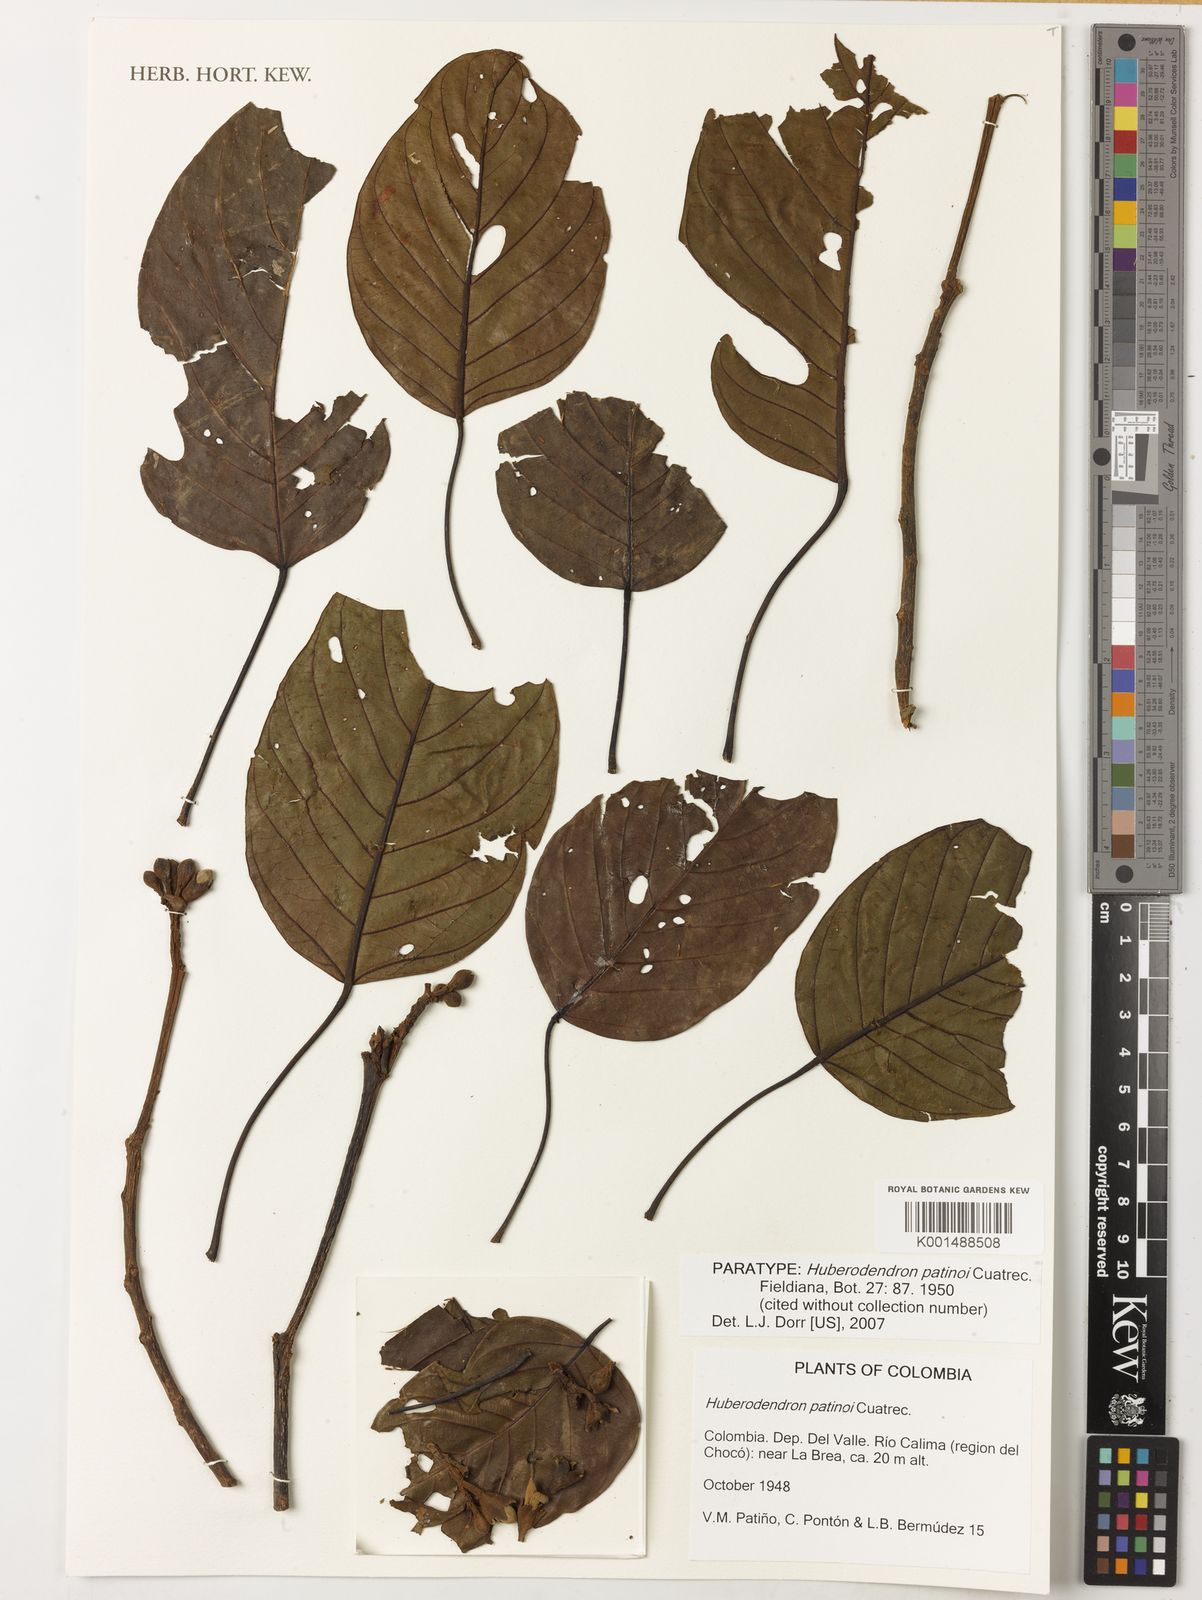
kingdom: Plantae
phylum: Tracheophyta
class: Magnoliopsida
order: Malvales
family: Malvaceae
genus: Huberodendron
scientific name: Huberodendron patinoi
